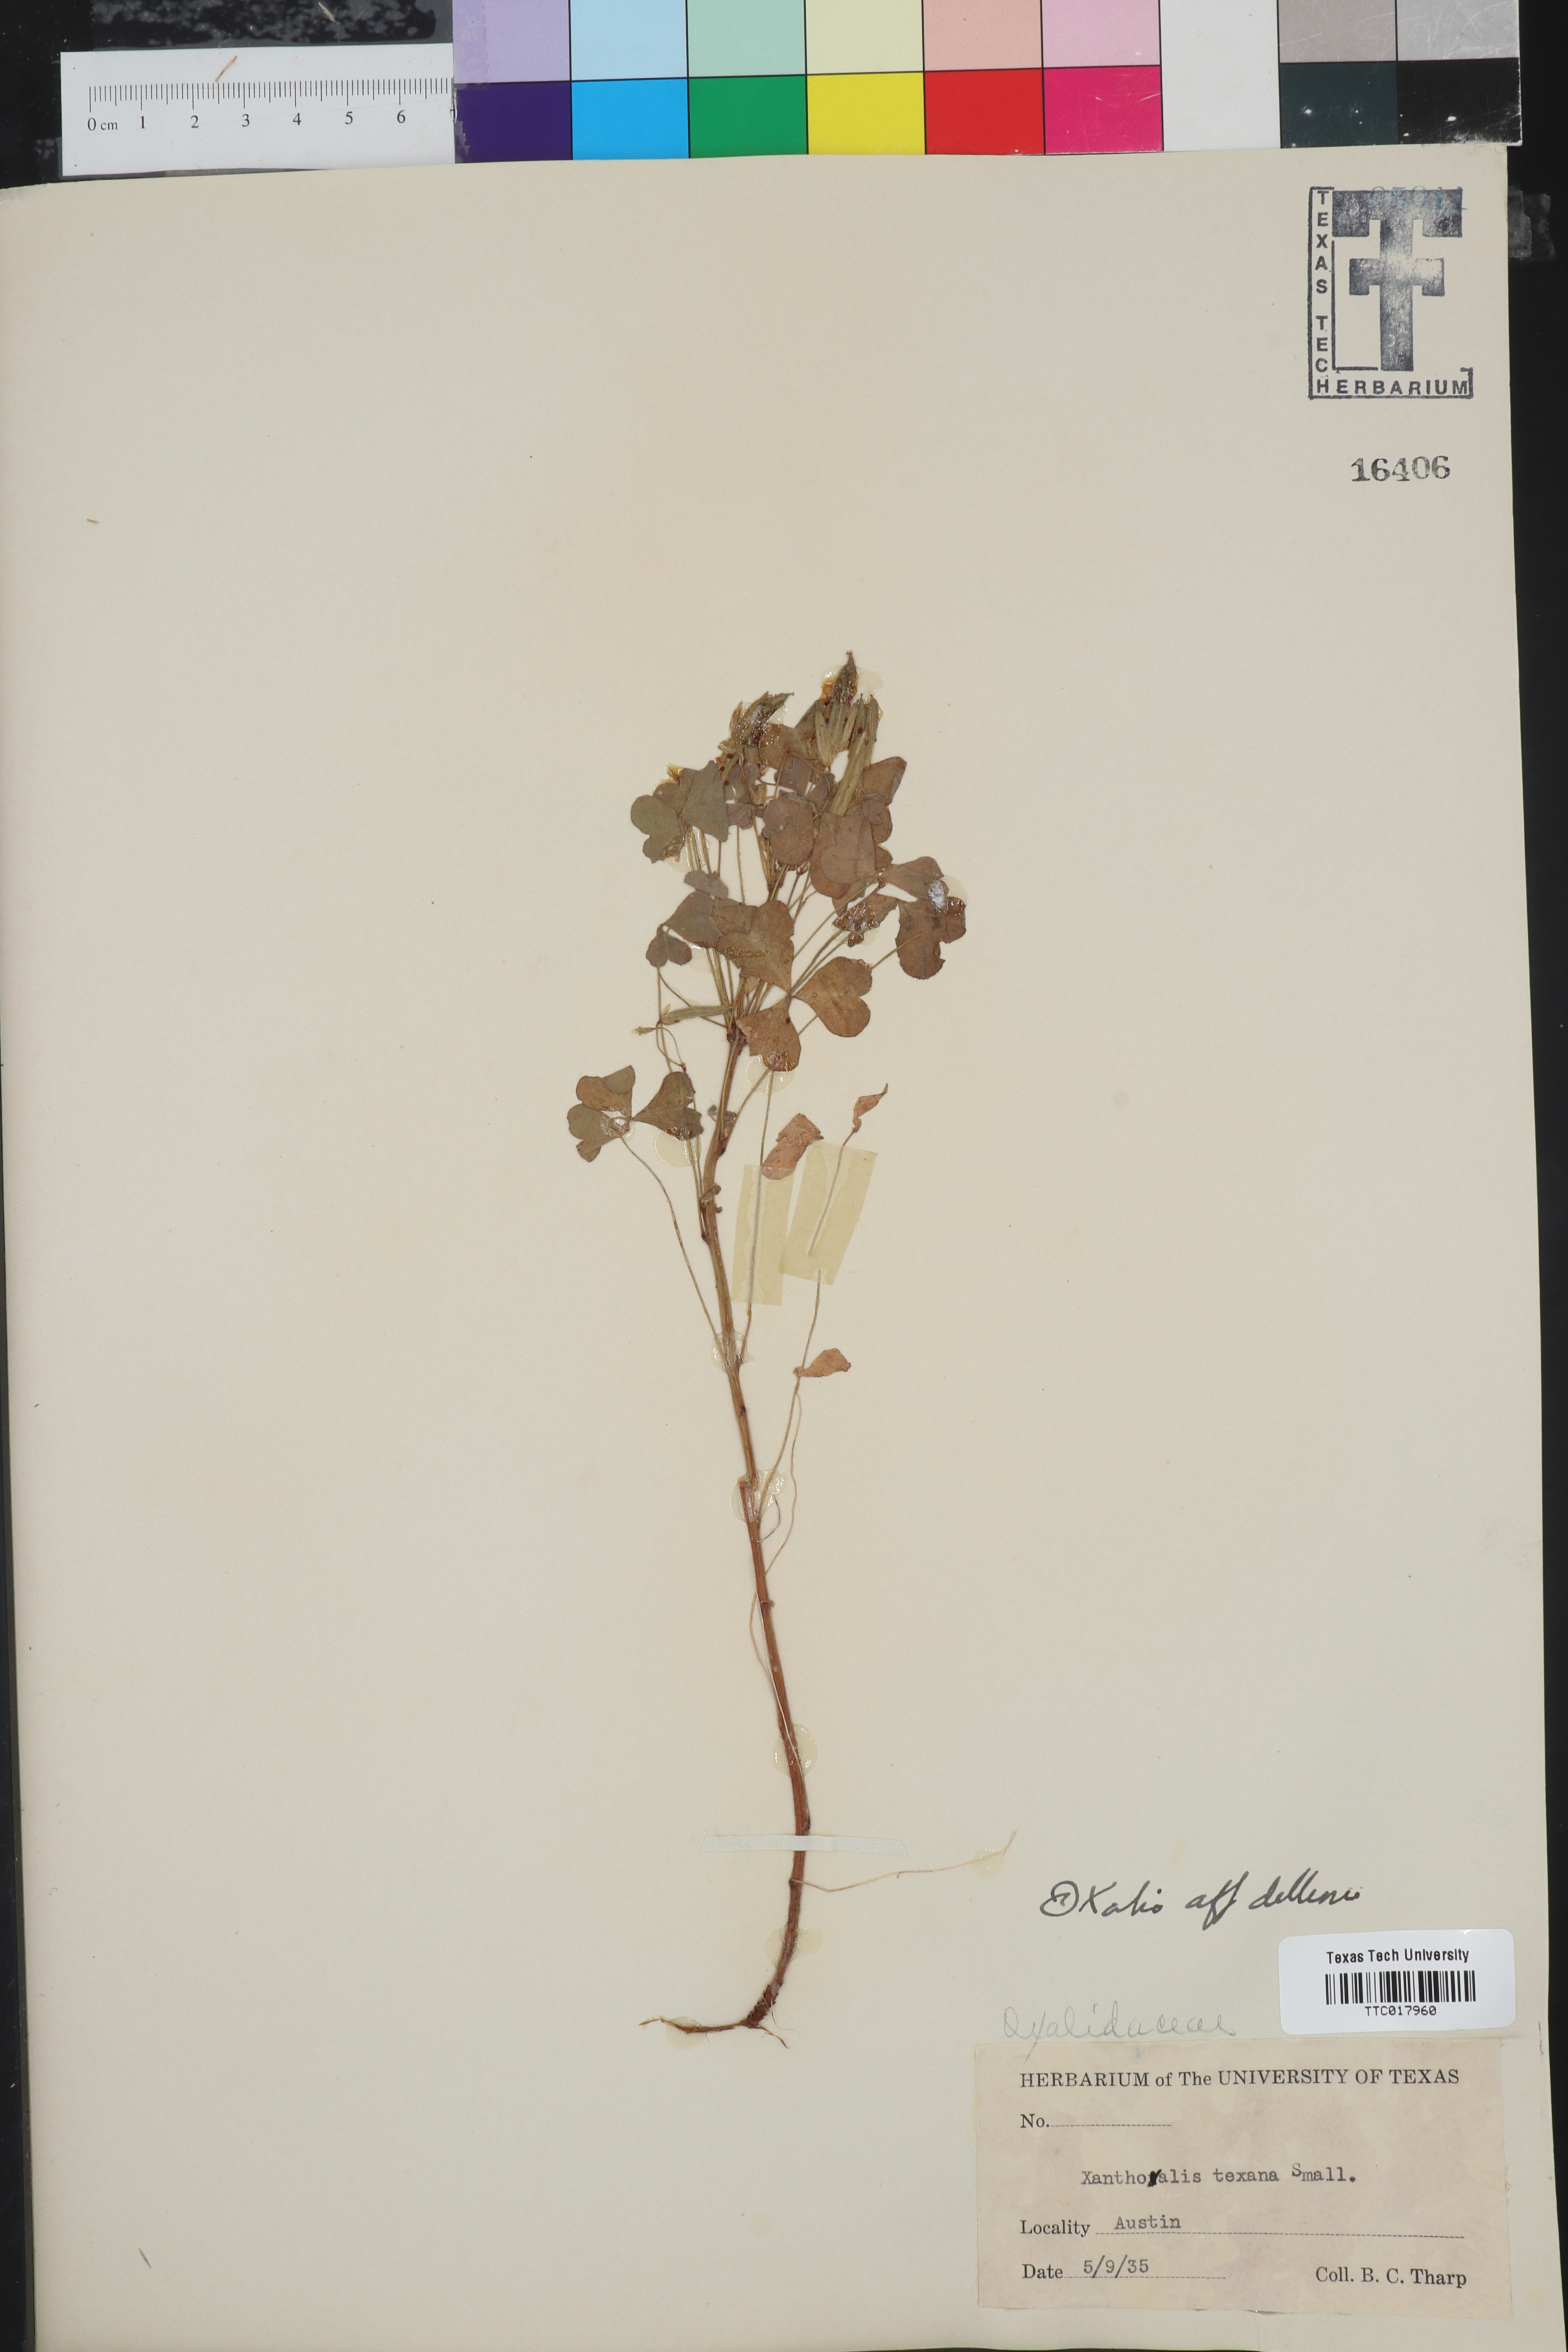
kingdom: Plantae
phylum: Tracheophyta
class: Magnoliopsida
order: Oxalidales
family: Oxalidaceae
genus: Oxalis
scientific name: Oxalis dillenii
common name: Sussex yellow-sorrel
